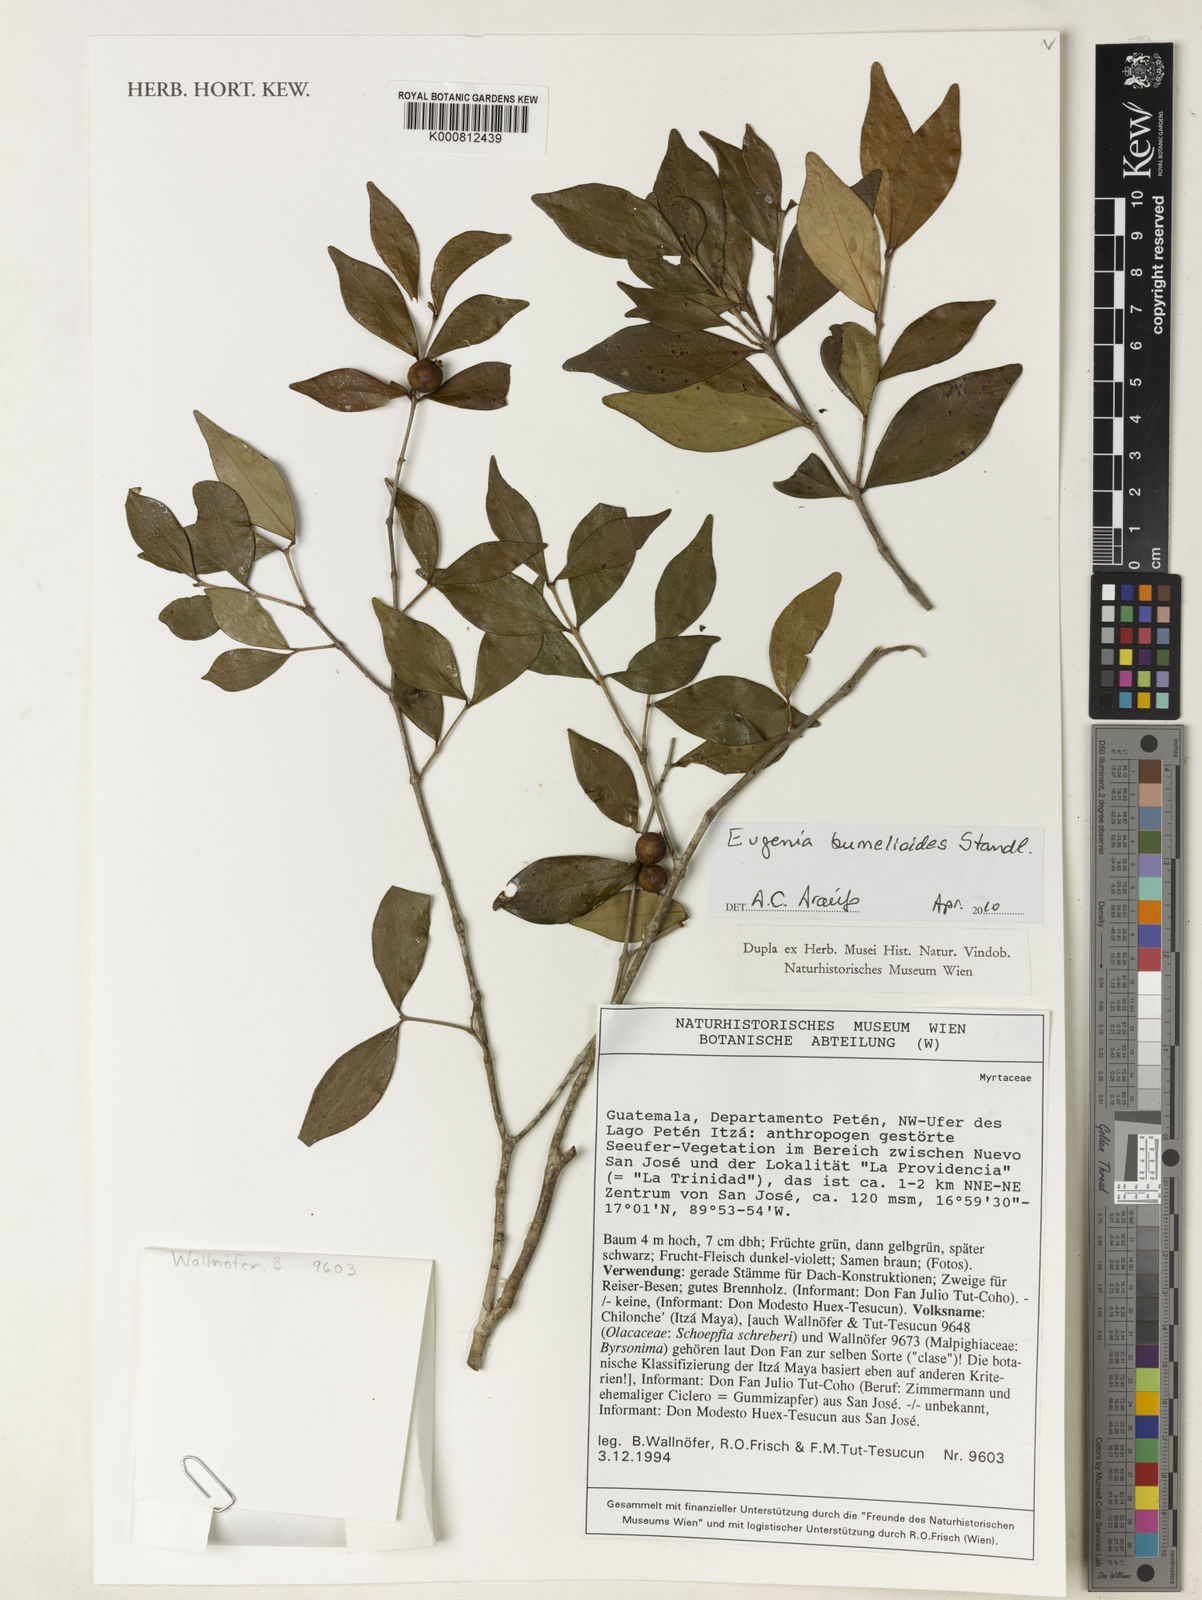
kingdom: Plantae
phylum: Tracheophyta
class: Magnoliopsida
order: Myrtales
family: Myrtaceae
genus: Eugenia
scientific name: Eugenia bumelioides
